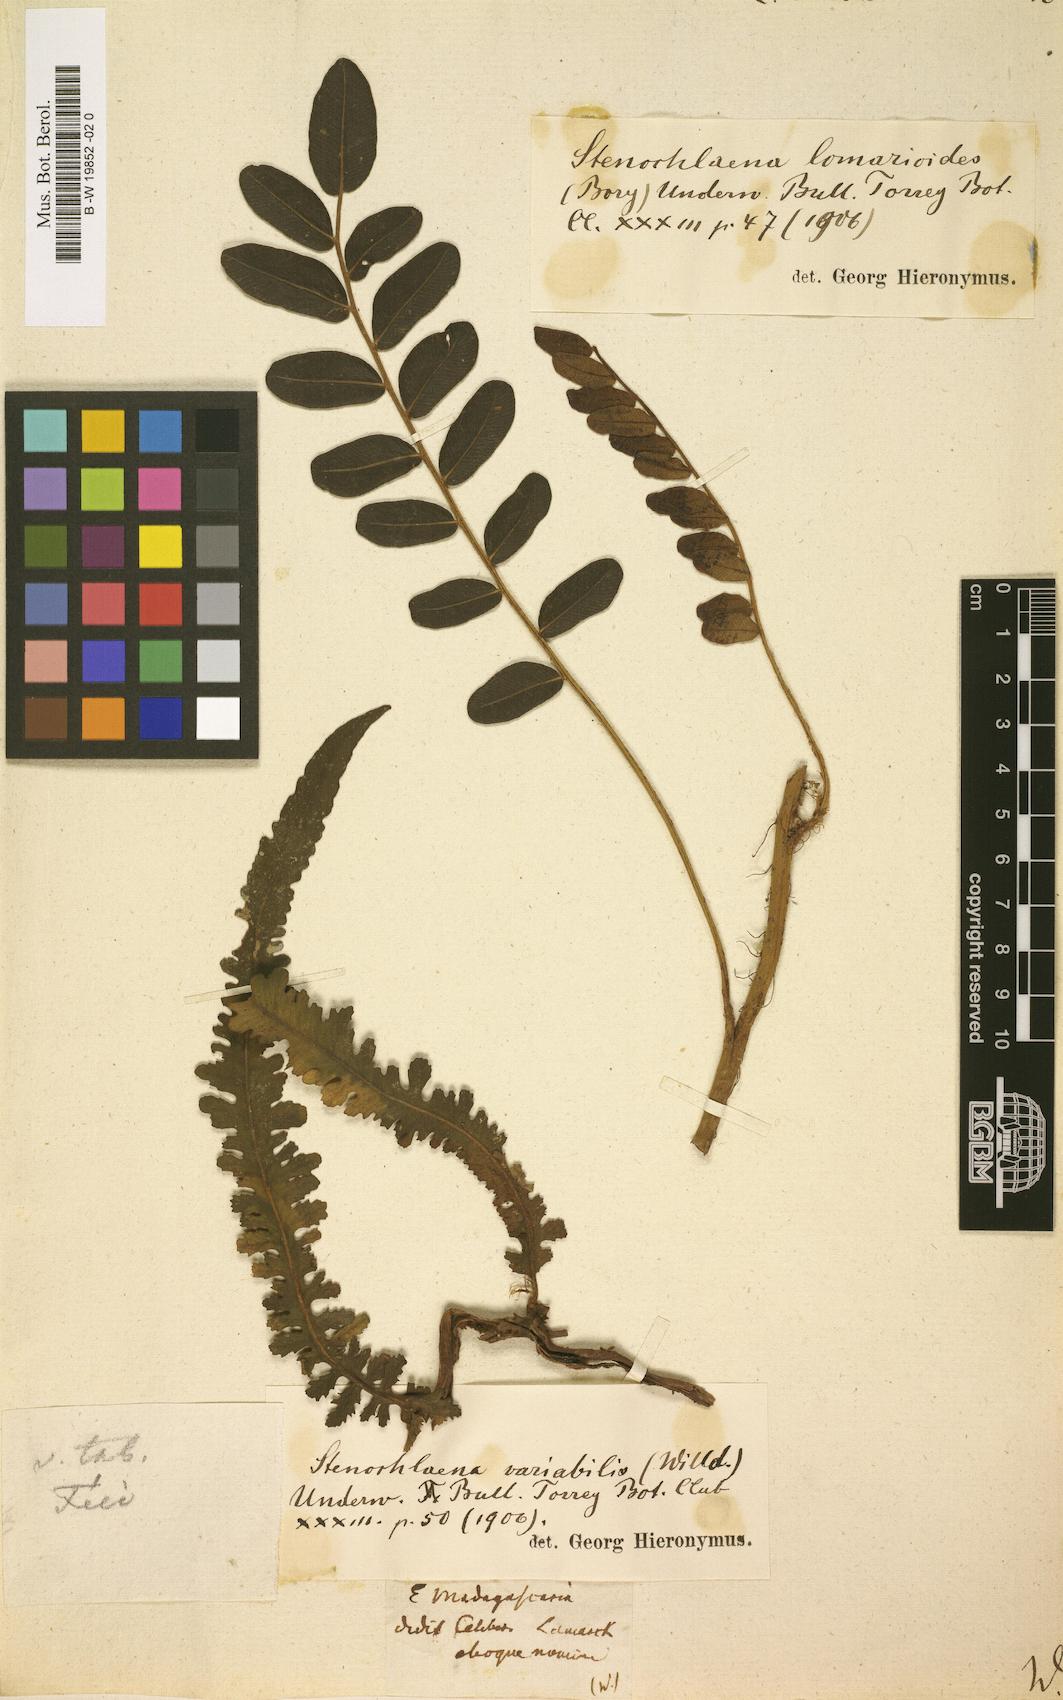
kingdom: Plantae
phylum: Tracheophyta
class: Polypodiopsida
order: Polypodiales
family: Lomariopsidaceae
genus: Lomariopsis
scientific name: Lomariopsis pollicina
